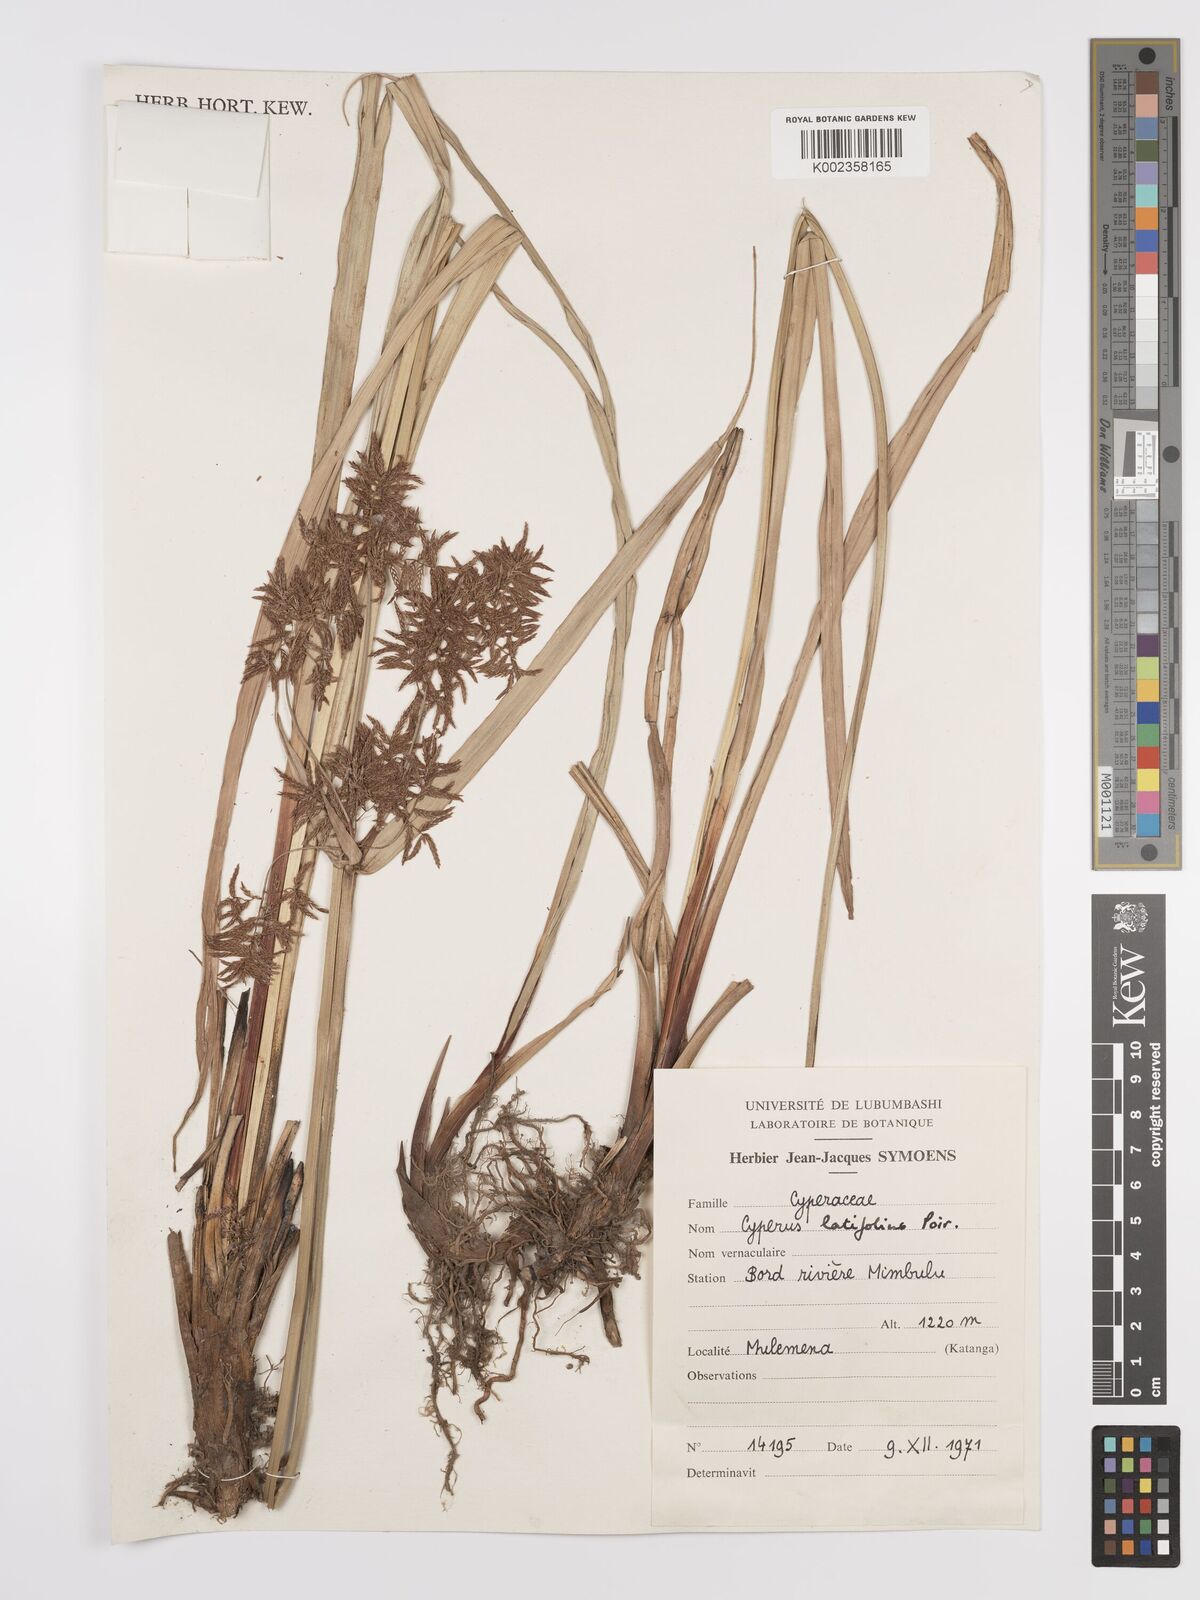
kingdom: Plantae
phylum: Tracheophyta
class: Liliopsida
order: Poales
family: Cyperaceae
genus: Cyperus
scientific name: Cyperus latifolius
